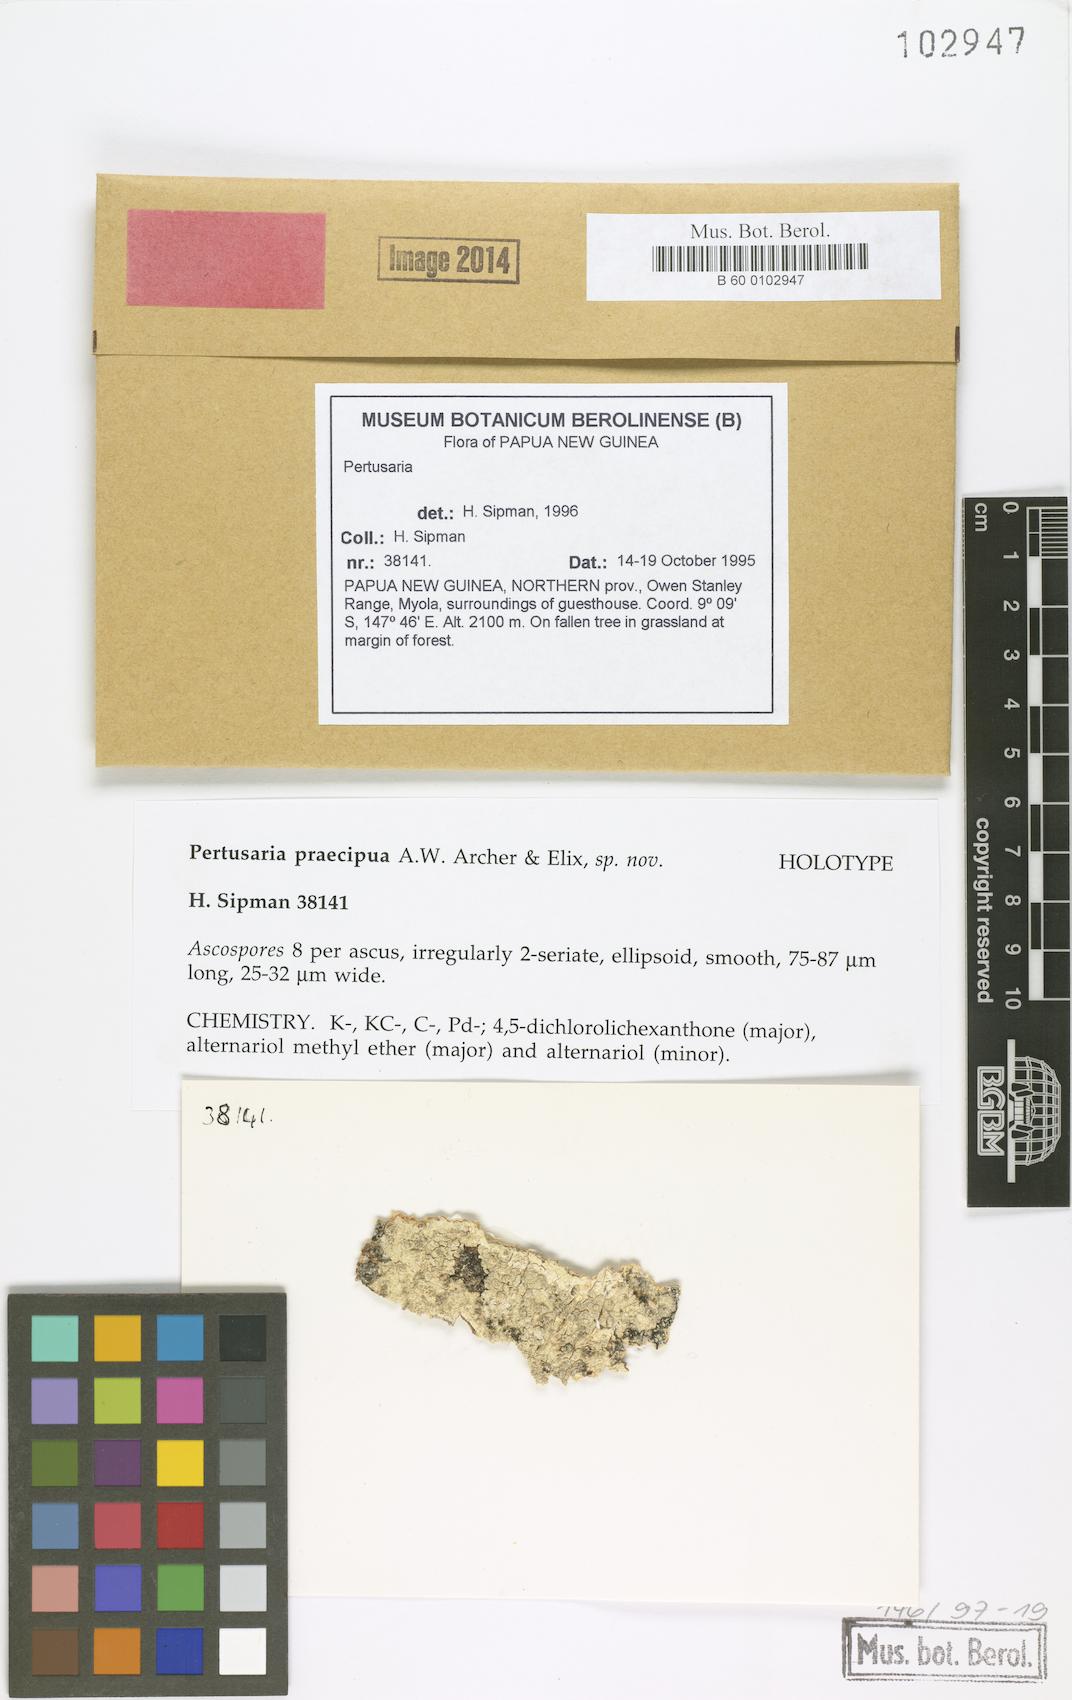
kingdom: Fungi
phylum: Ascomycota
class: Lecanoromycetes
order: Pertusariales
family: Pertusariaceae
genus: Pertusaria
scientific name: Pertusaria
